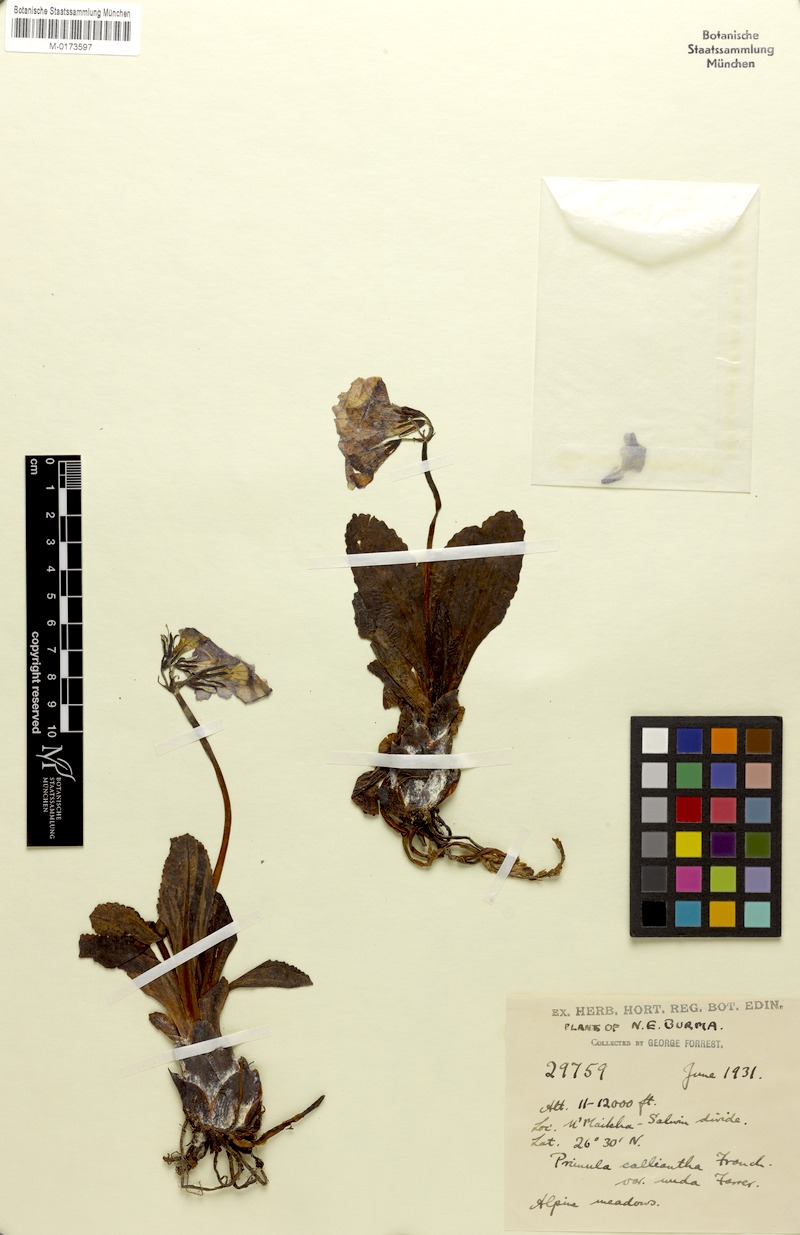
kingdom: Plantae
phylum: Tracheophyta
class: Magnoliopsida
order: Ericales
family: Primulaceae
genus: Primula
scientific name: Primula calliantha
